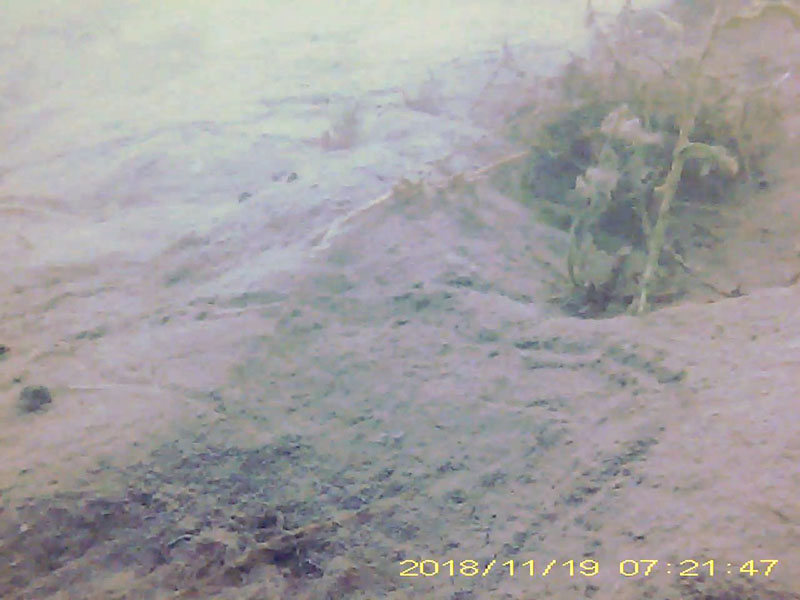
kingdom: Animalia
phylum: Arthropoda
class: Malacostraca
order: Decapoda
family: Hippolytidae
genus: Hippolyte
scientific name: Hippolyte
